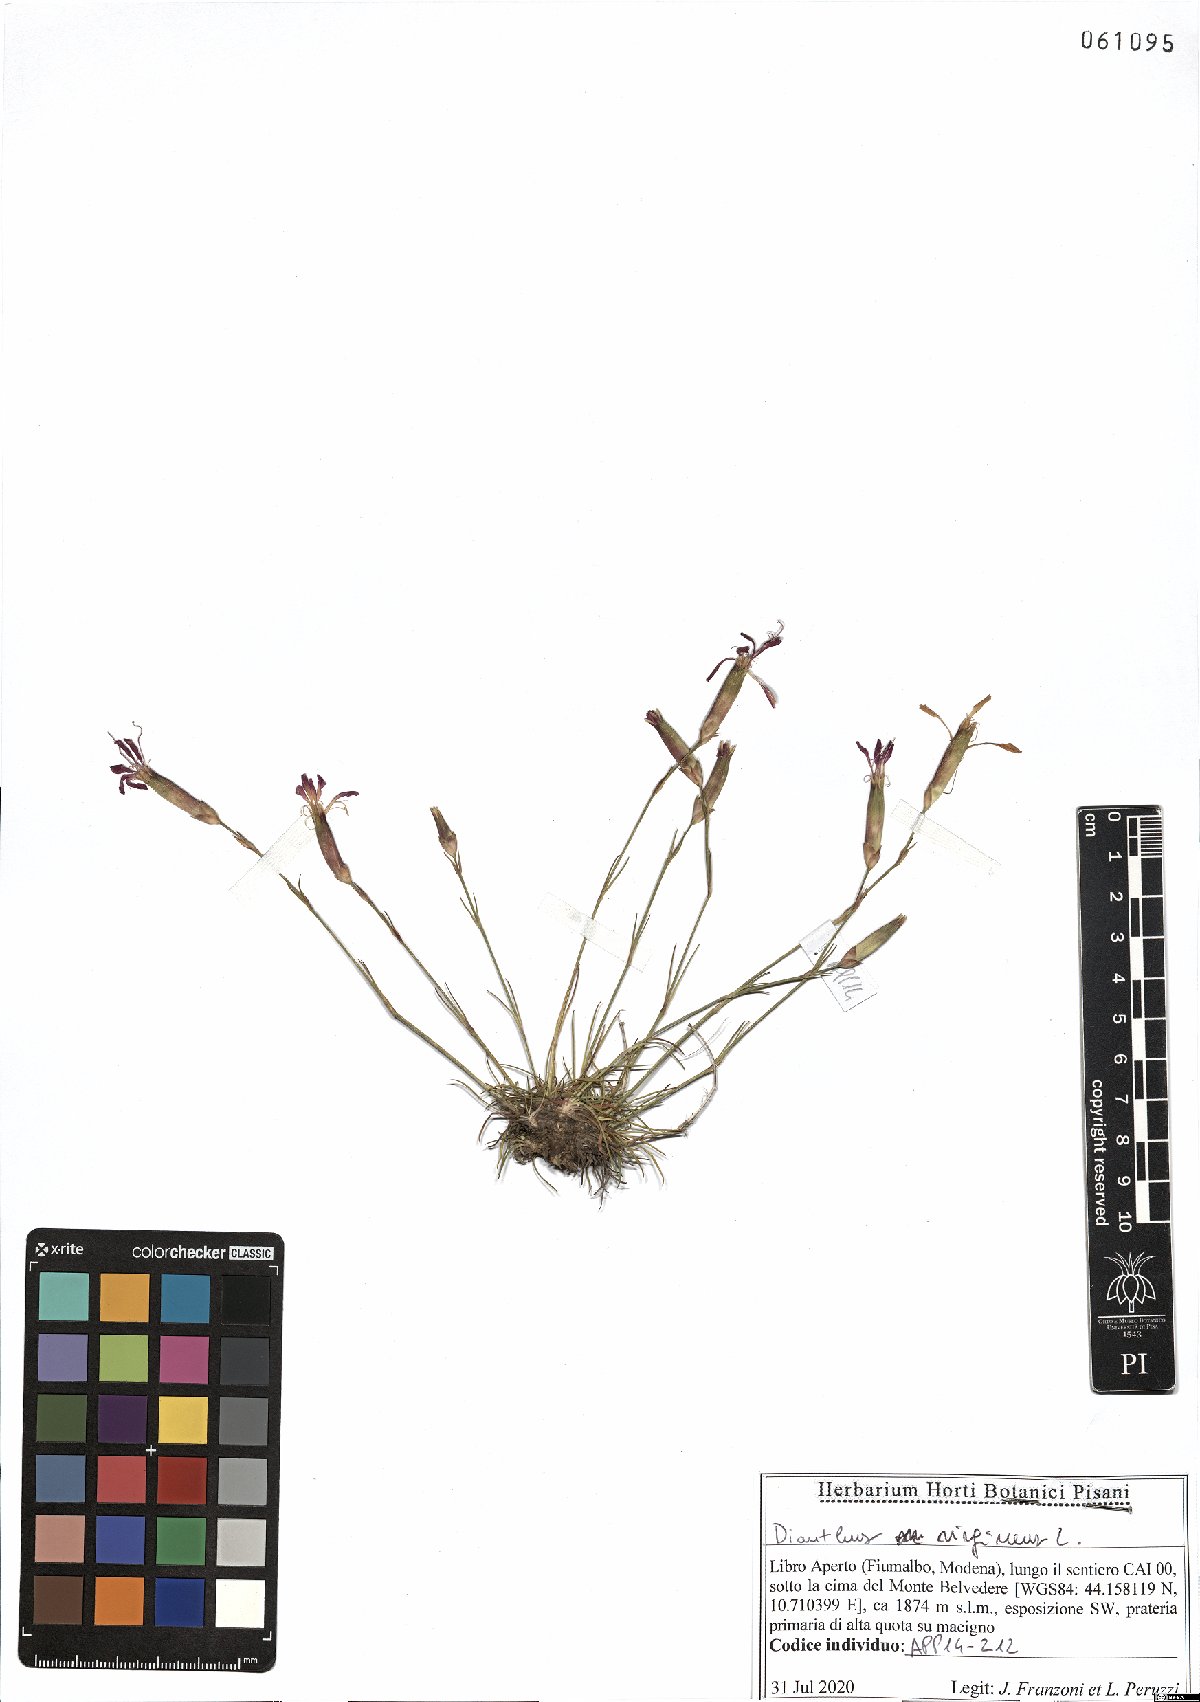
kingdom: Plantae
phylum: Tracheophyta
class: Magnoliopsida
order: Caryophyllales
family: Caryophyllaceae
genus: Dianthus
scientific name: Dianthus virgineus
